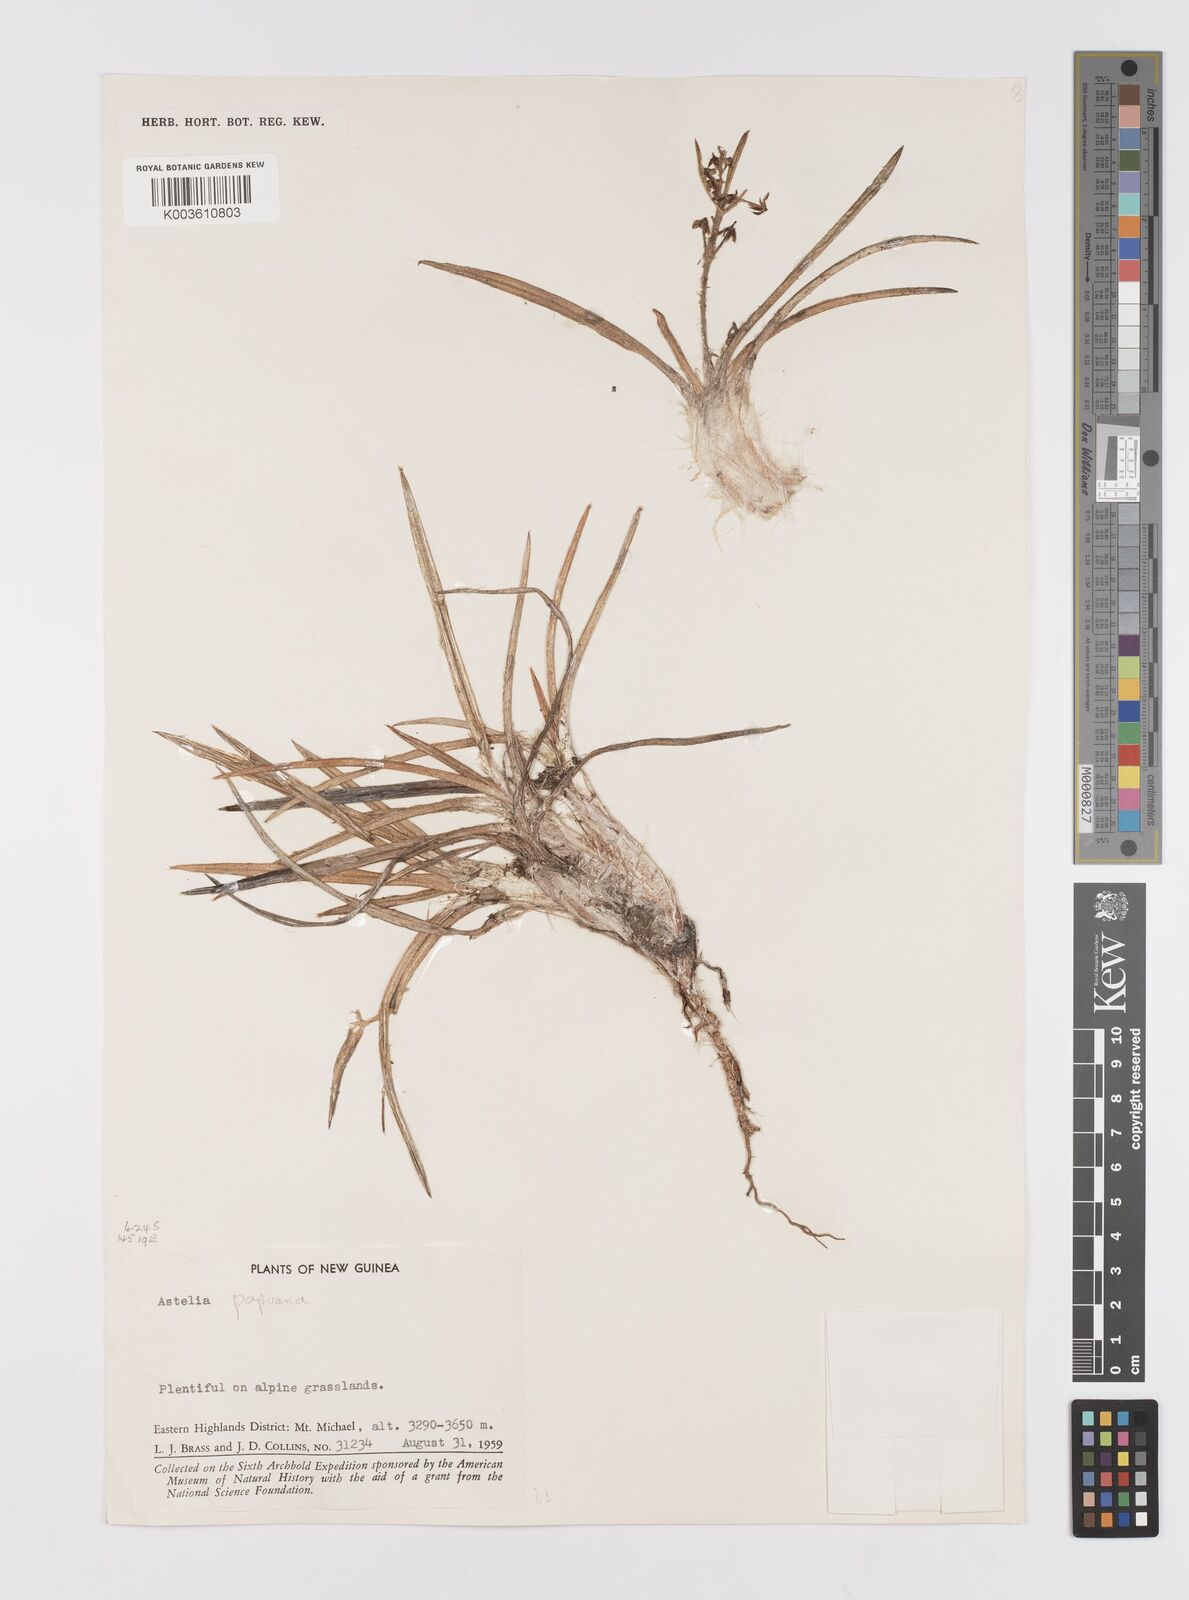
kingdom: Plantae
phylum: Tracheophyta
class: Liliopsida
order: Asparagales
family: Asteliaceae
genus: Astelia
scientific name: Astelia papuana
